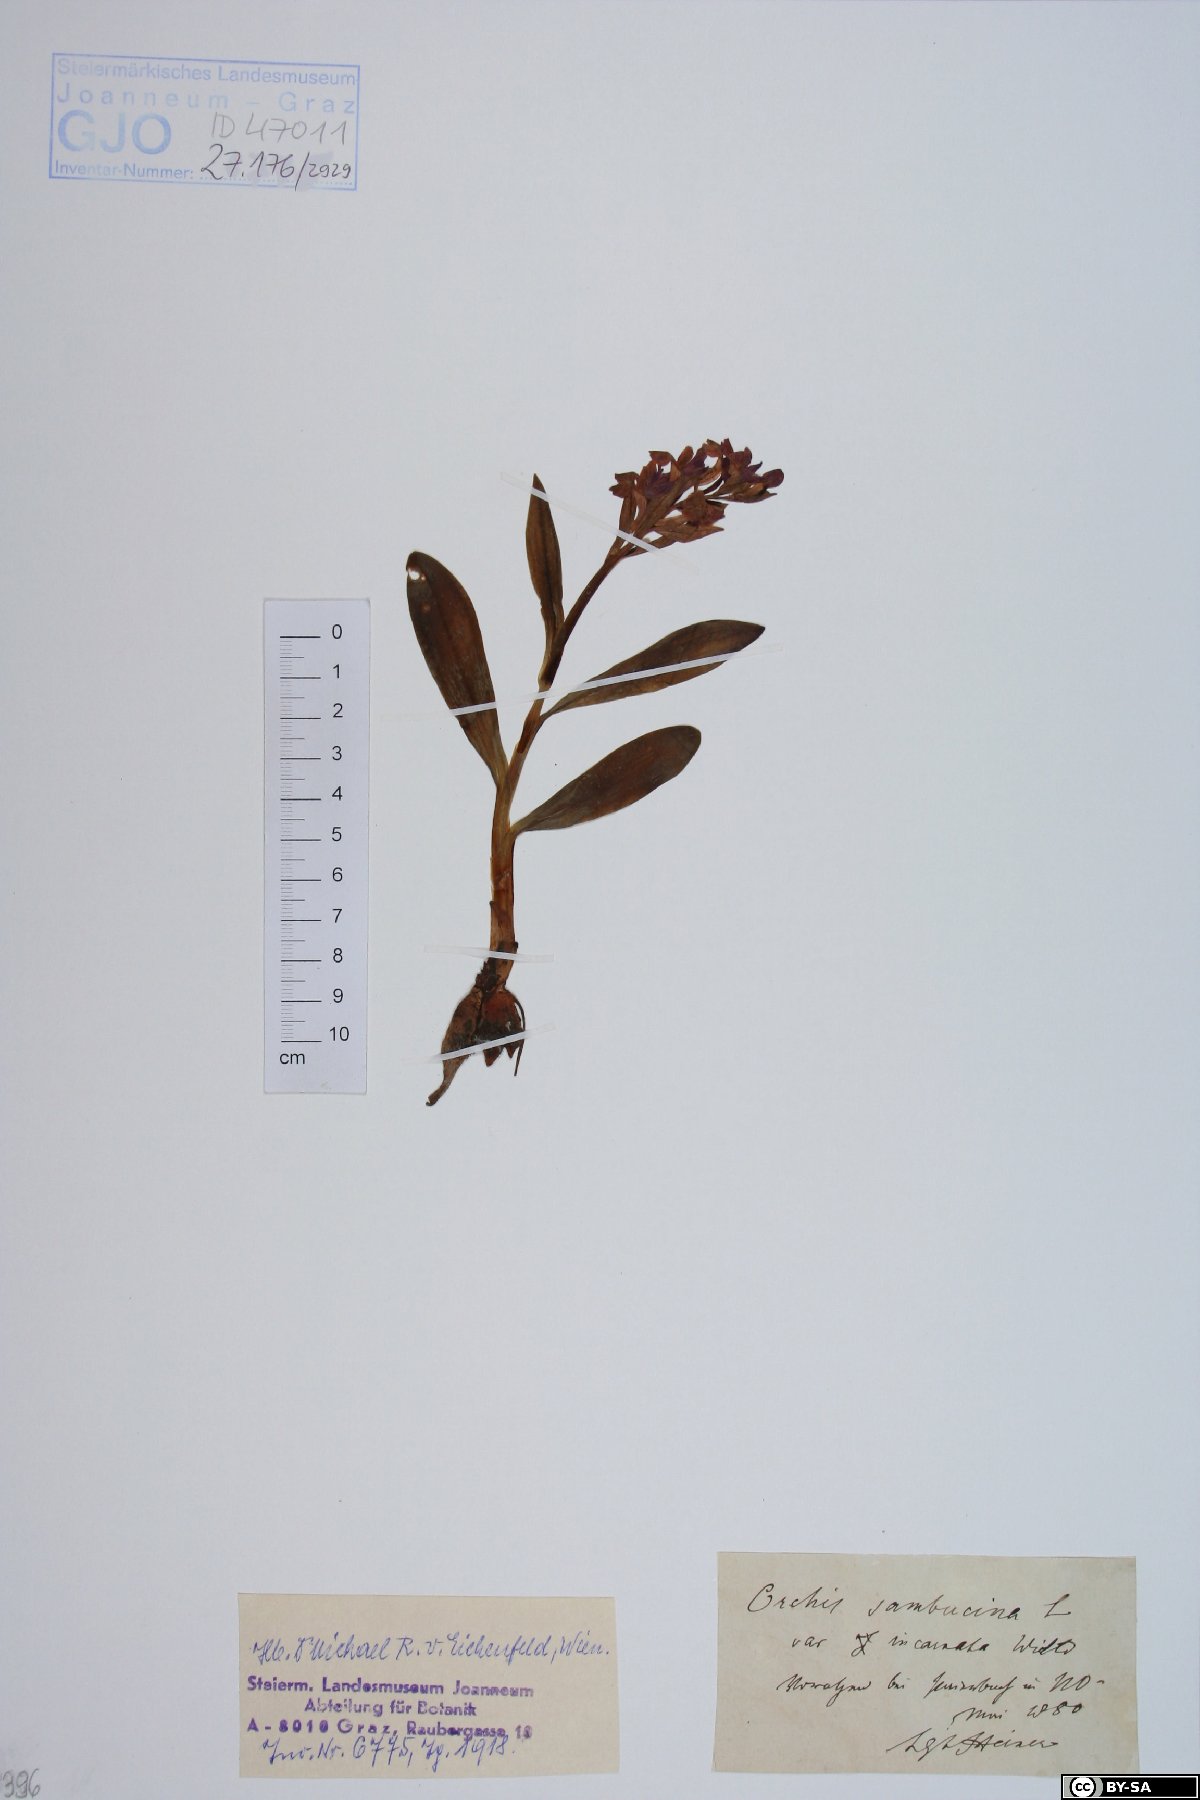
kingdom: Plantae
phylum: Tracheophyta
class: Liliopsida
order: Asparagales
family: Orchidaceae
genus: Dactylorhiza
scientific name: Dactylorhiza sambucina
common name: Elder-flowered orchid
